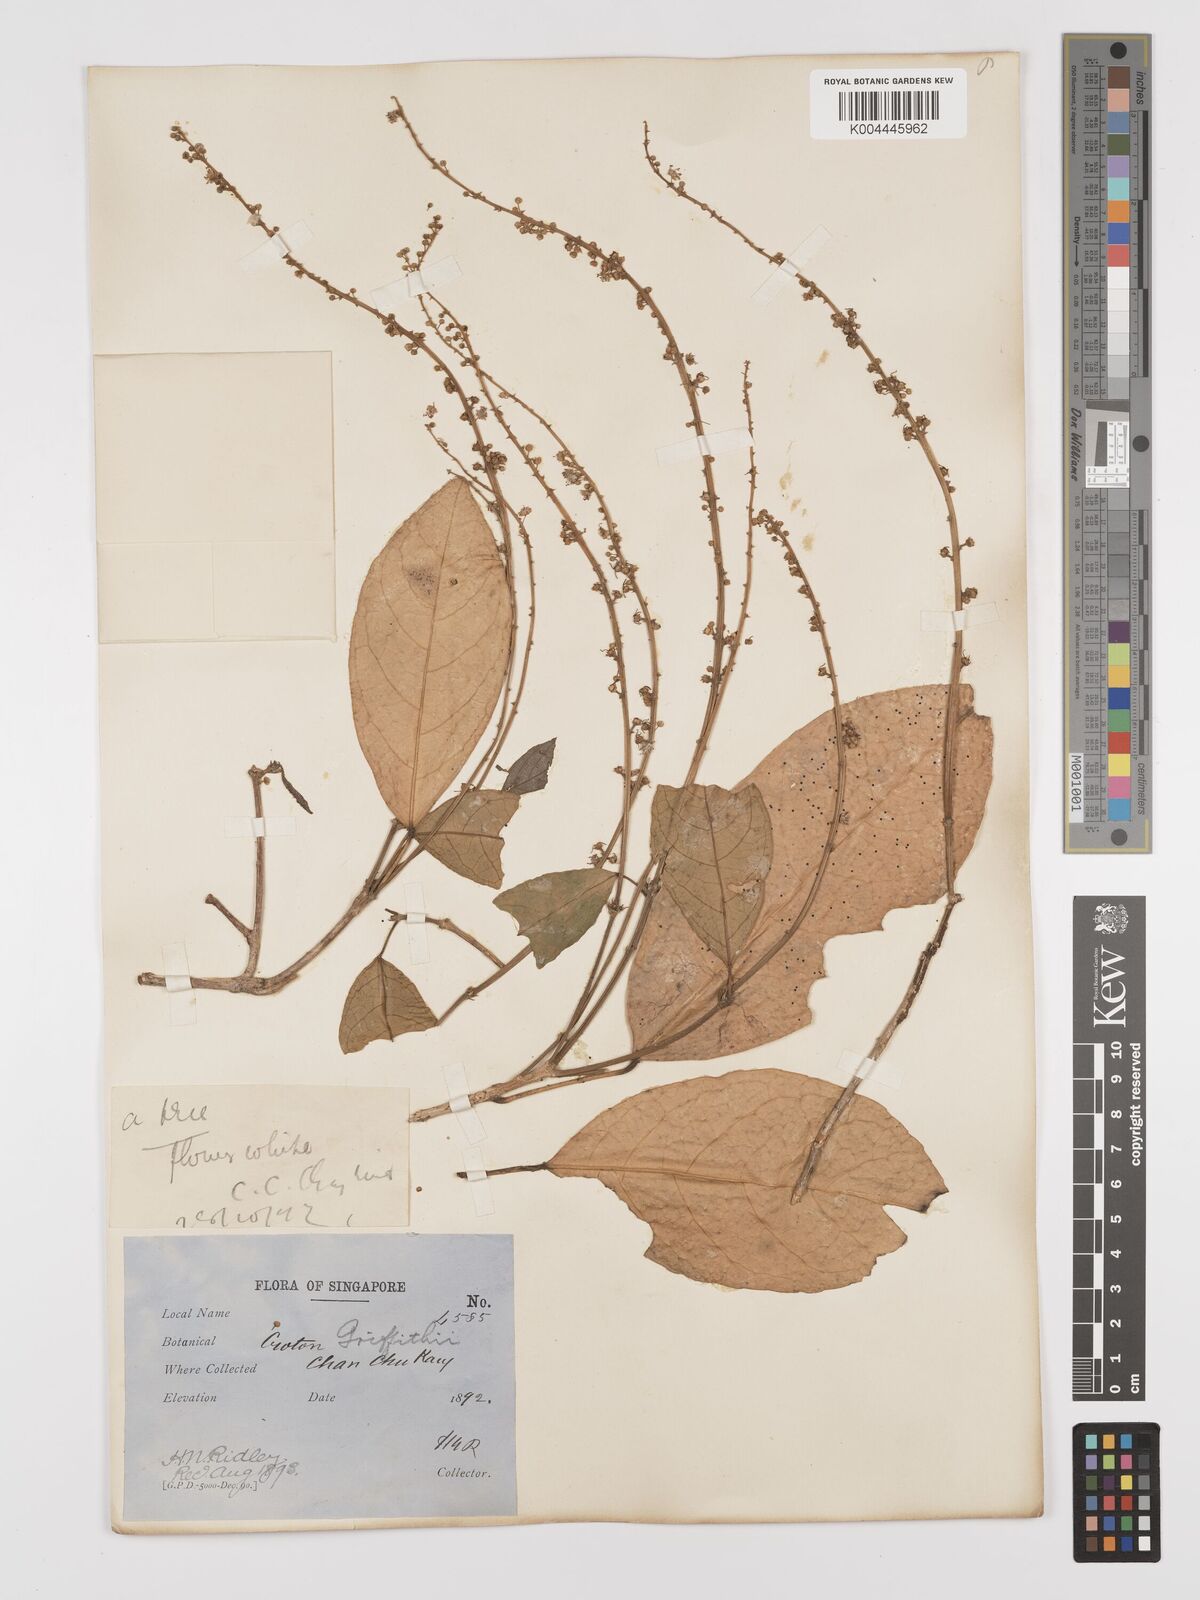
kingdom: Plantae
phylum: Tracheophyta
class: Magnoliopsida
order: Malpighiales
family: Euphorbiaceae
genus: Croton
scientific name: Croton griffithii
